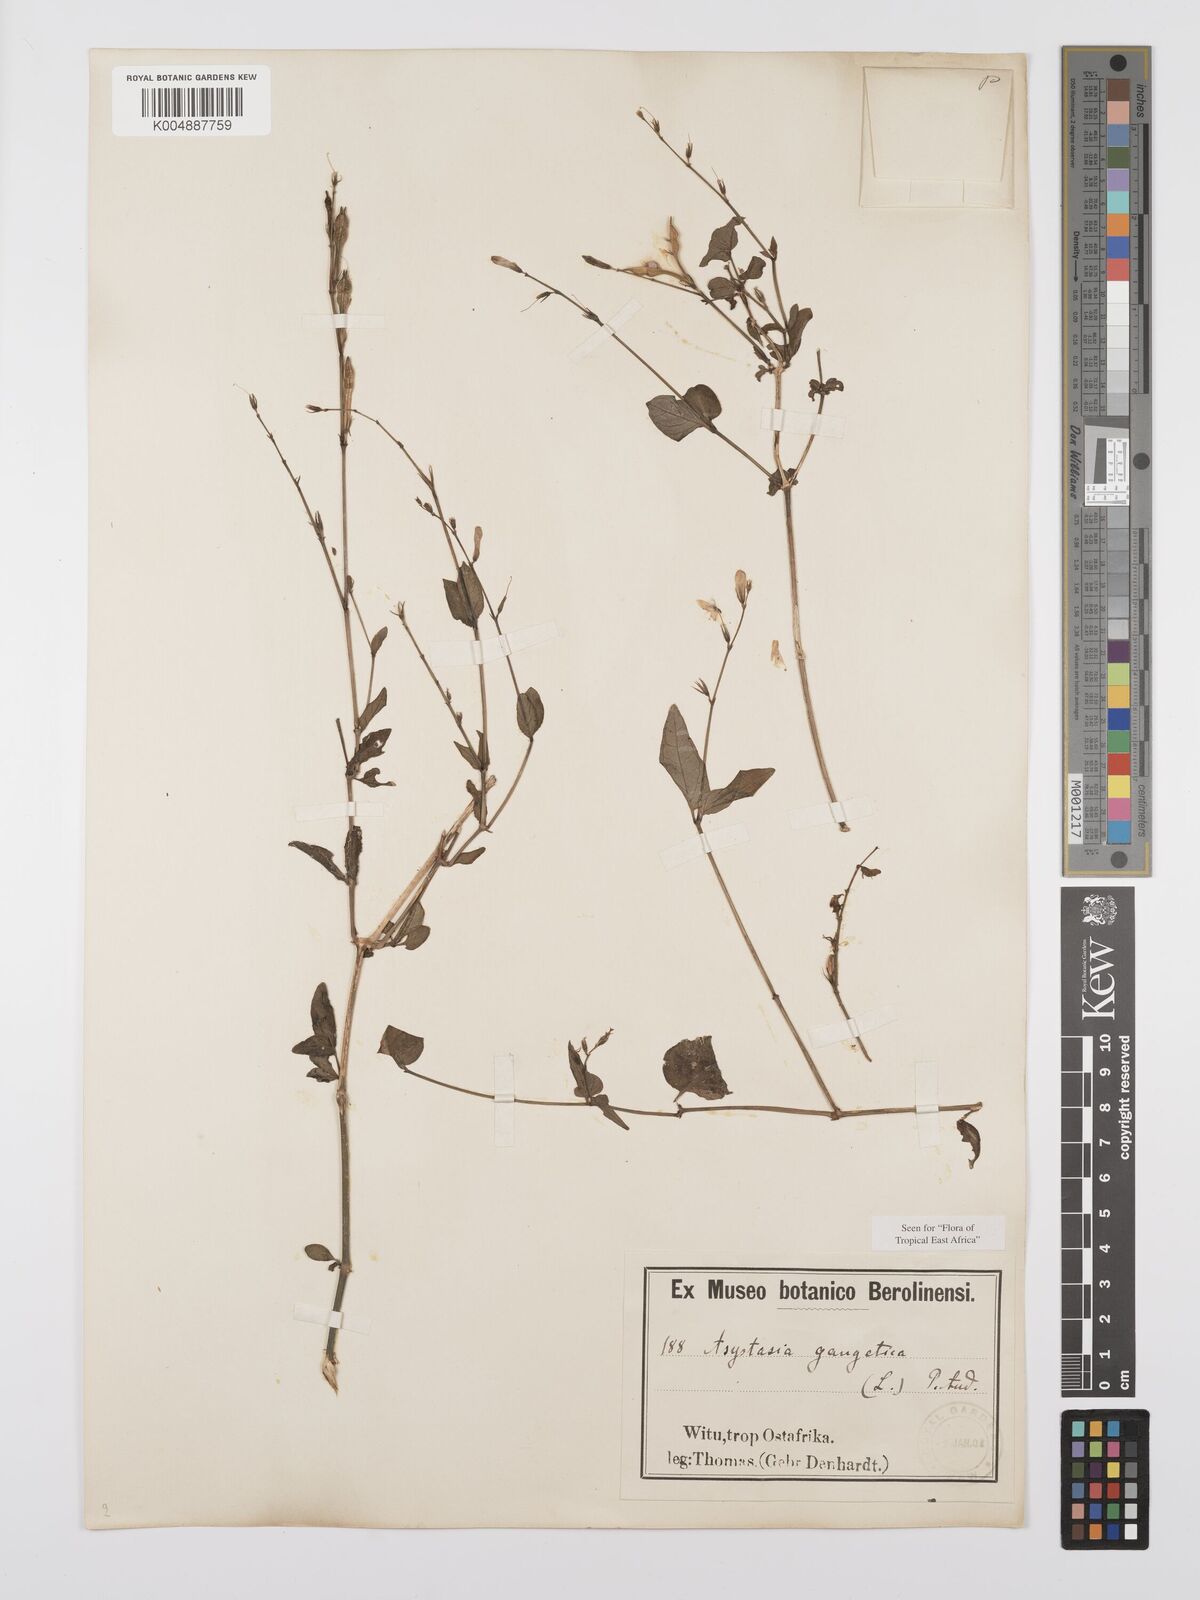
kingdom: Plantae
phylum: Tracheophyta
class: Magnoliopsida
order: Lamiales
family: Acanthaceae
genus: Asystasia
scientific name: Asystasia gangetica
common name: Chinese violet
